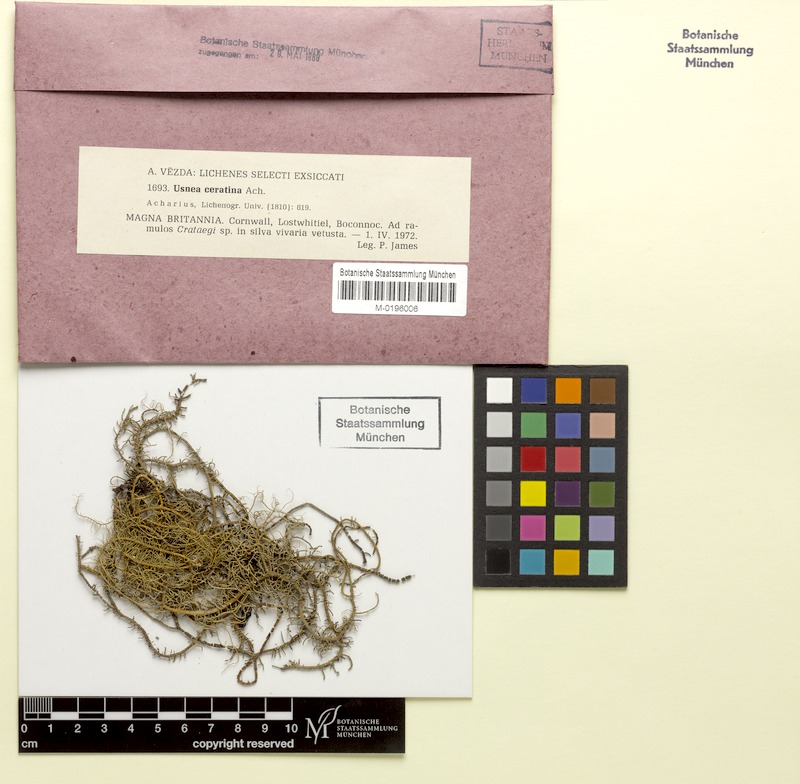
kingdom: Fungi
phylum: Ascomycota
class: Lecanoromycetes
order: Lecanorales
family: Parmeliaceae
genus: Usnea
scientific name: Usnea ceratina
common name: Warty beard lichen
